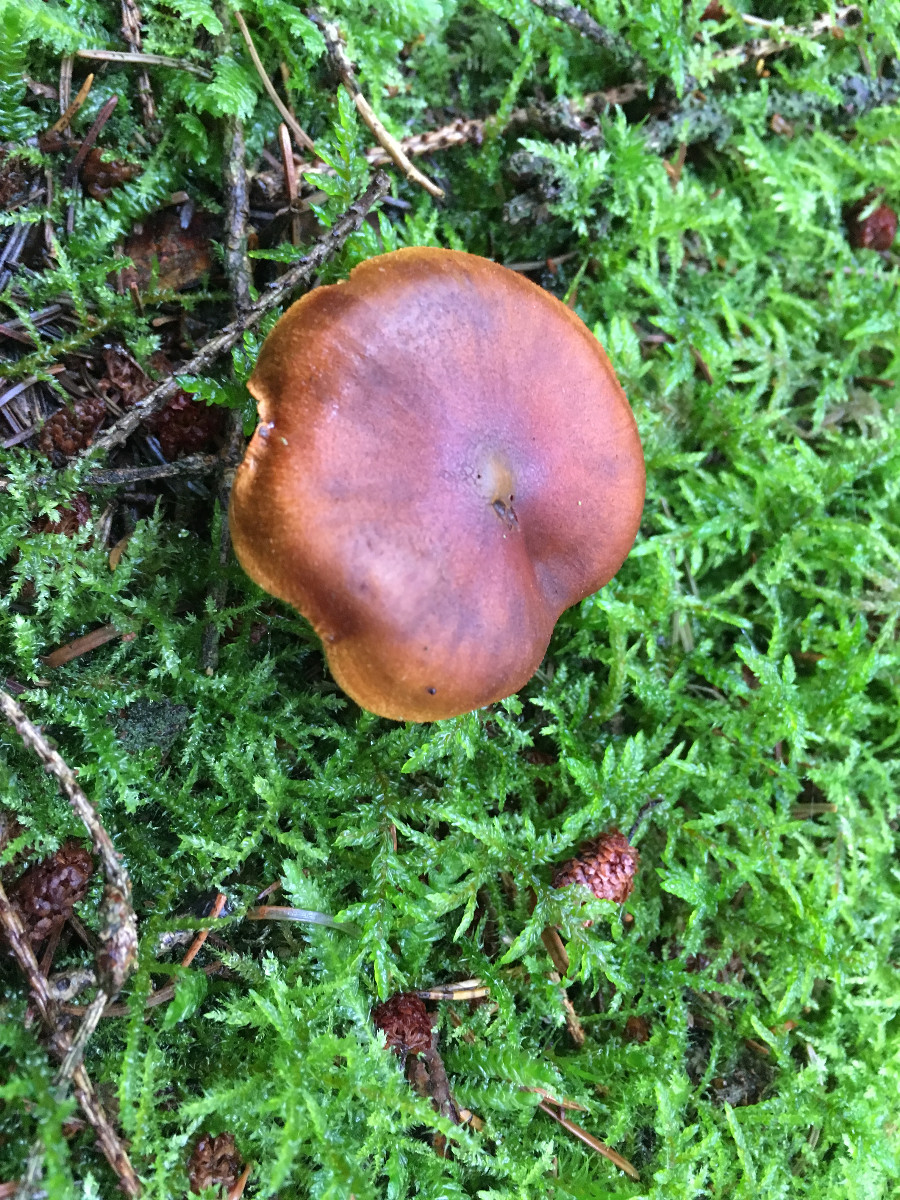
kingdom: Fungi
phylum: Basidiomycota
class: Agaricomycetes
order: Agaricales
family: Cortinariaceae
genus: Cortinarius
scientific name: Cortinarius malicorius
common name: grønkødet slørhat
